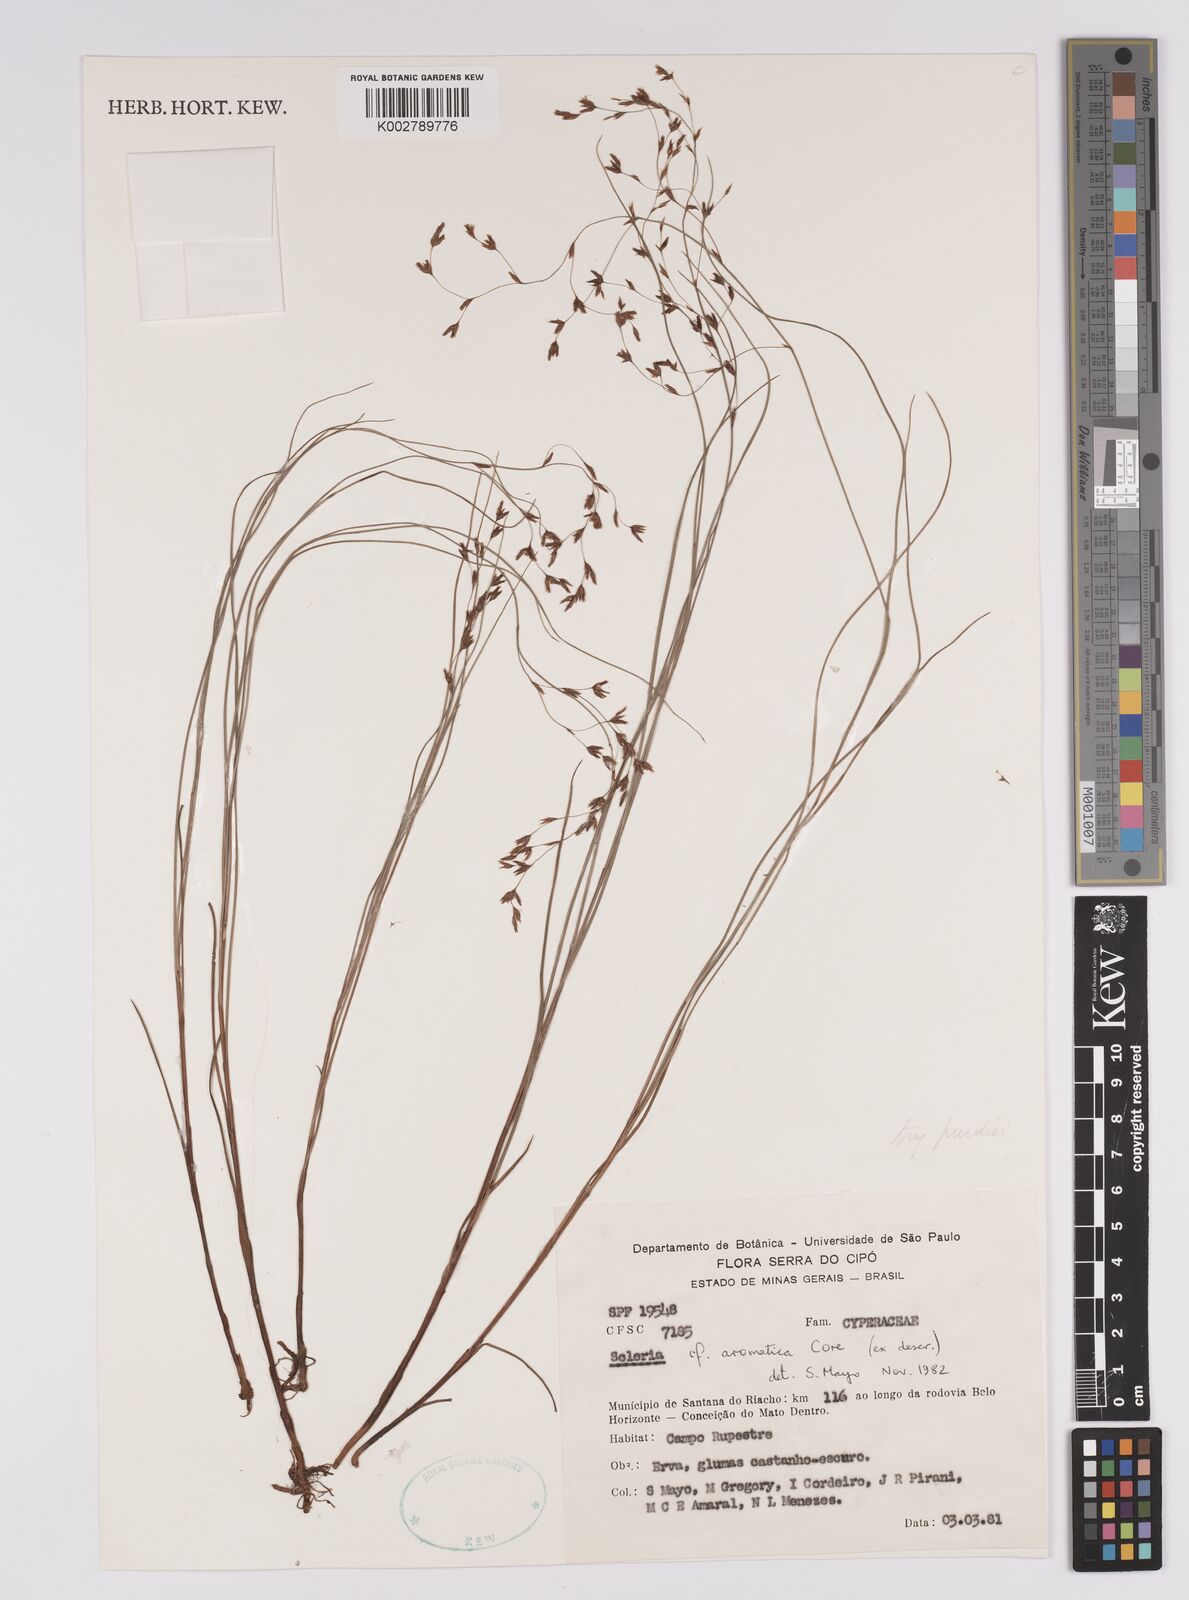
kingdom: Plantae
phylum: Tracheophyta
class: Liliopsida
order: Poales
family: Cyperaceae
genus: Scleria
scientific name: Scleria aromatica
